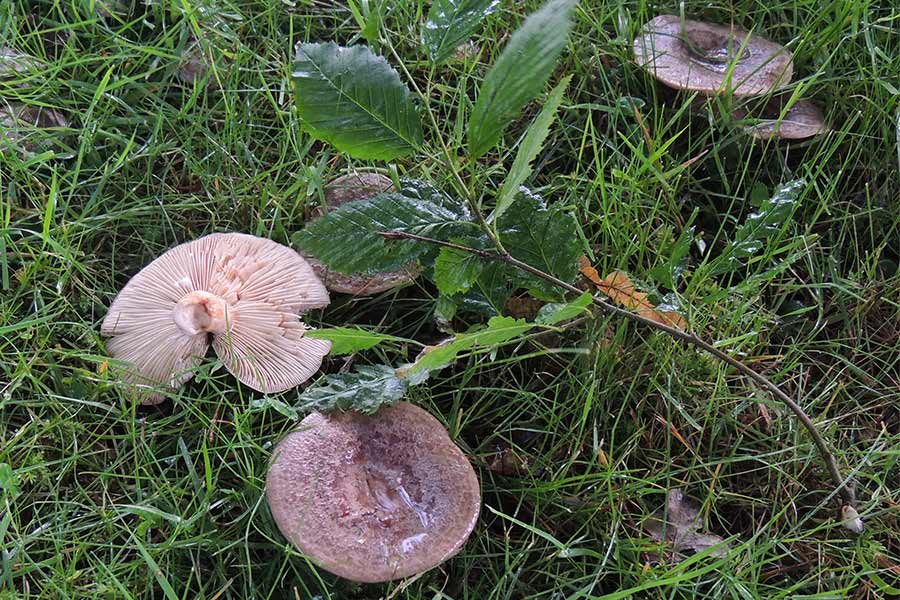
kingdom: Fungi
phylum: Basidiomycota
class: Agaricomycetes
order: Russulales
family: Russulaceae
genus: Lactarius
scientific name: Lactarius circellatus
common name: avnbøg-mælkehat
